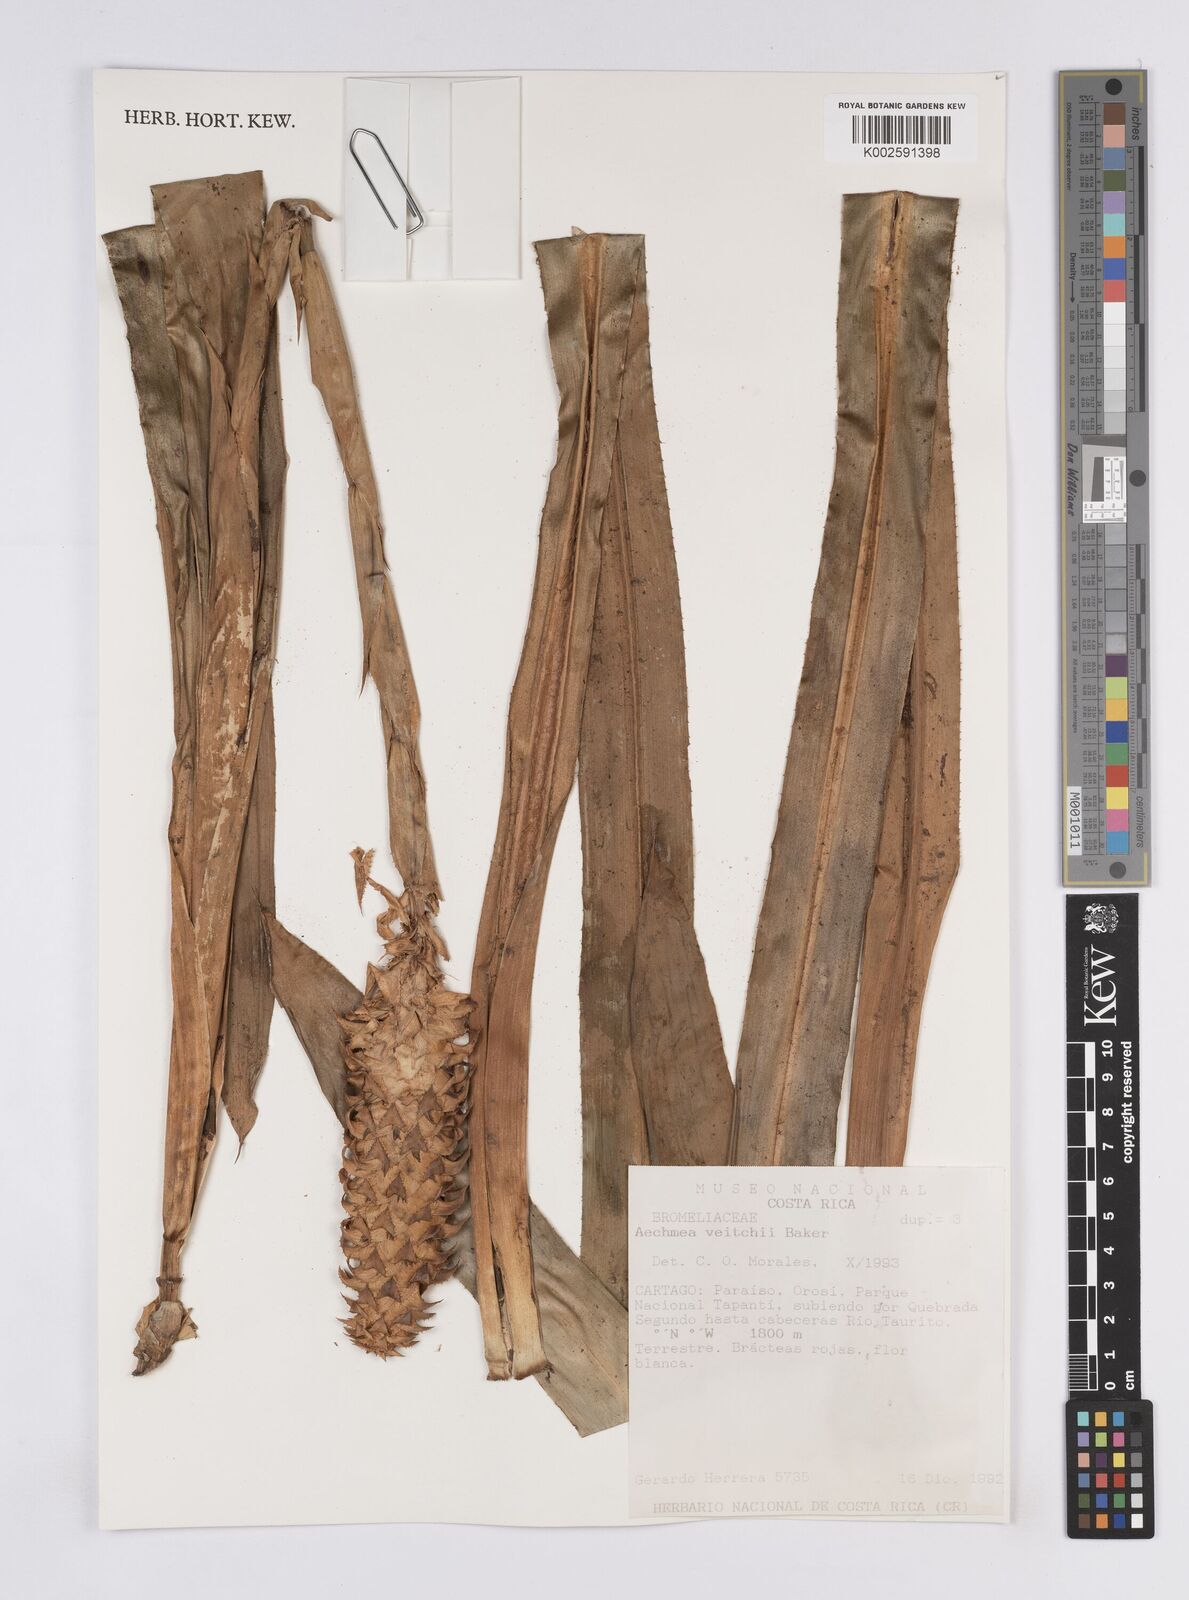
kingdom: Plantae
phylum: Tracheophyta
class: Liliopsida
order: Poales
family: Bromeliaceae
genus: Ronnbergia
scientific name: Ronnbergia veitchii
